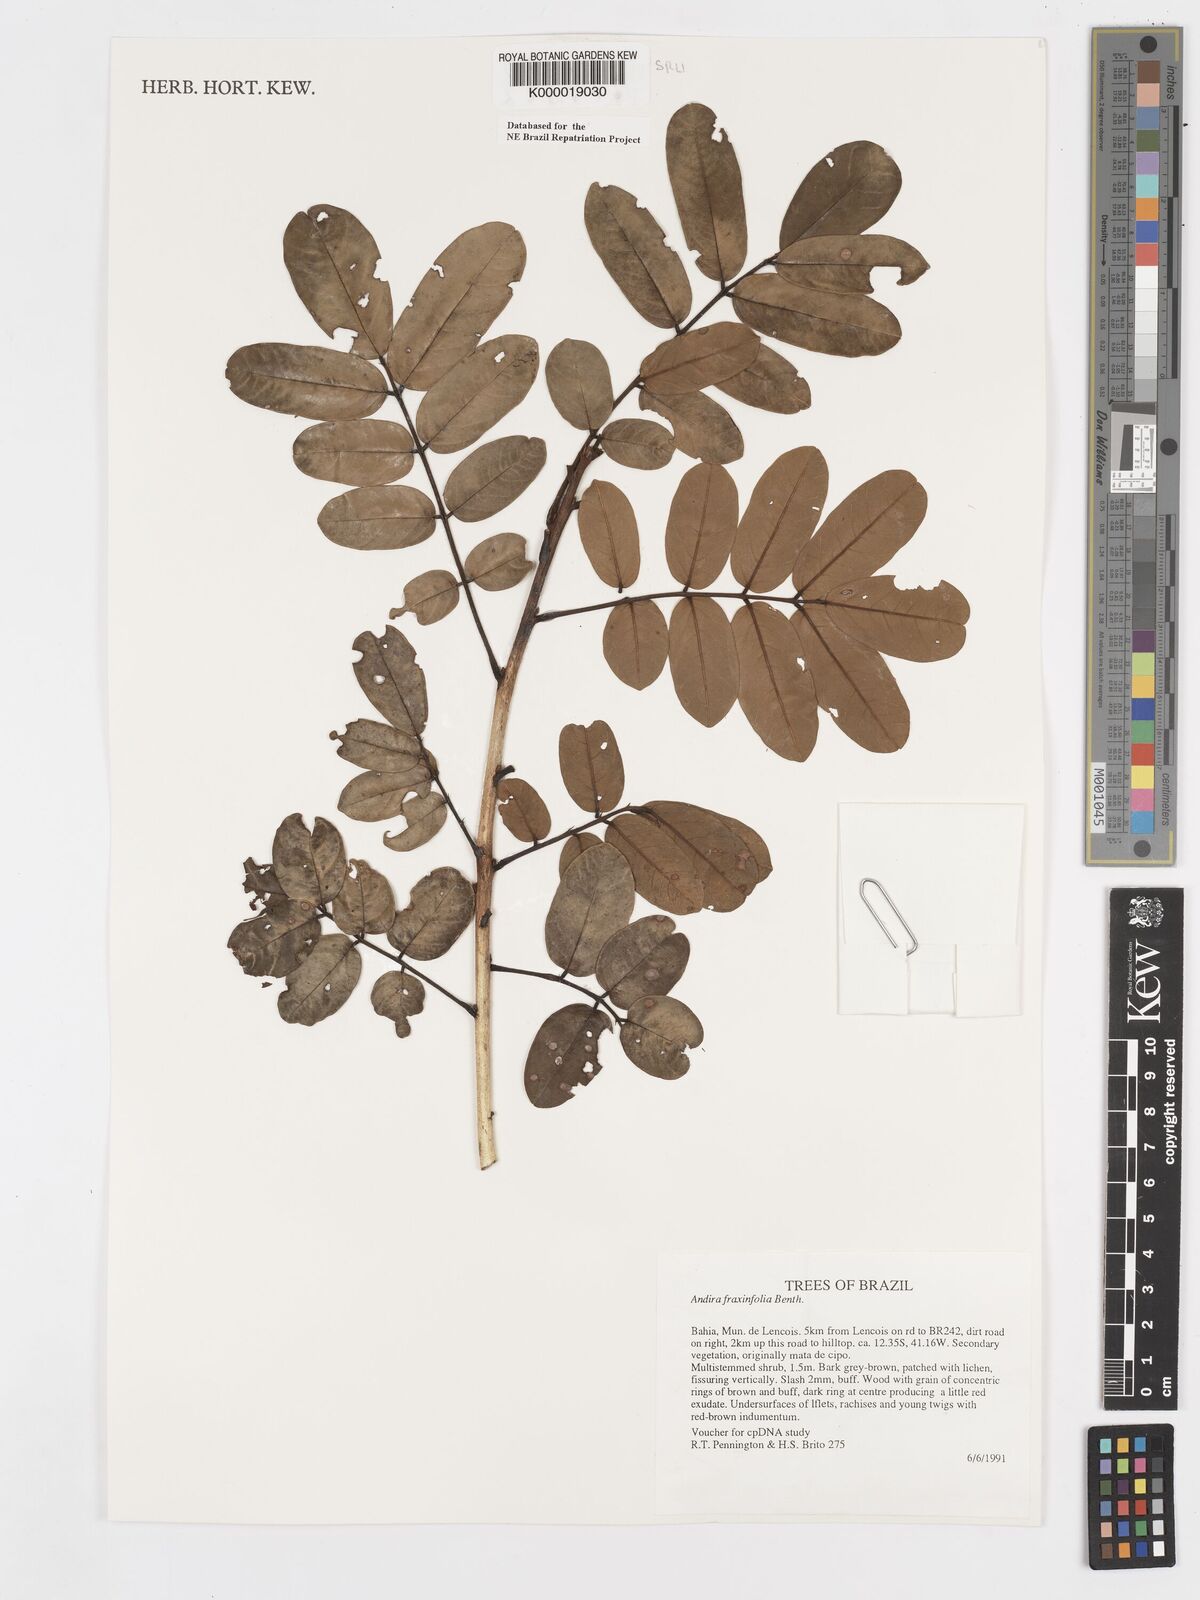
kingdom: Plantae
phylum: Tracheophyta
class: Magnoliopsida
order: Fabales
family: Fabaceae
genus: Andira
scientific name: Andira fraxinifolia
